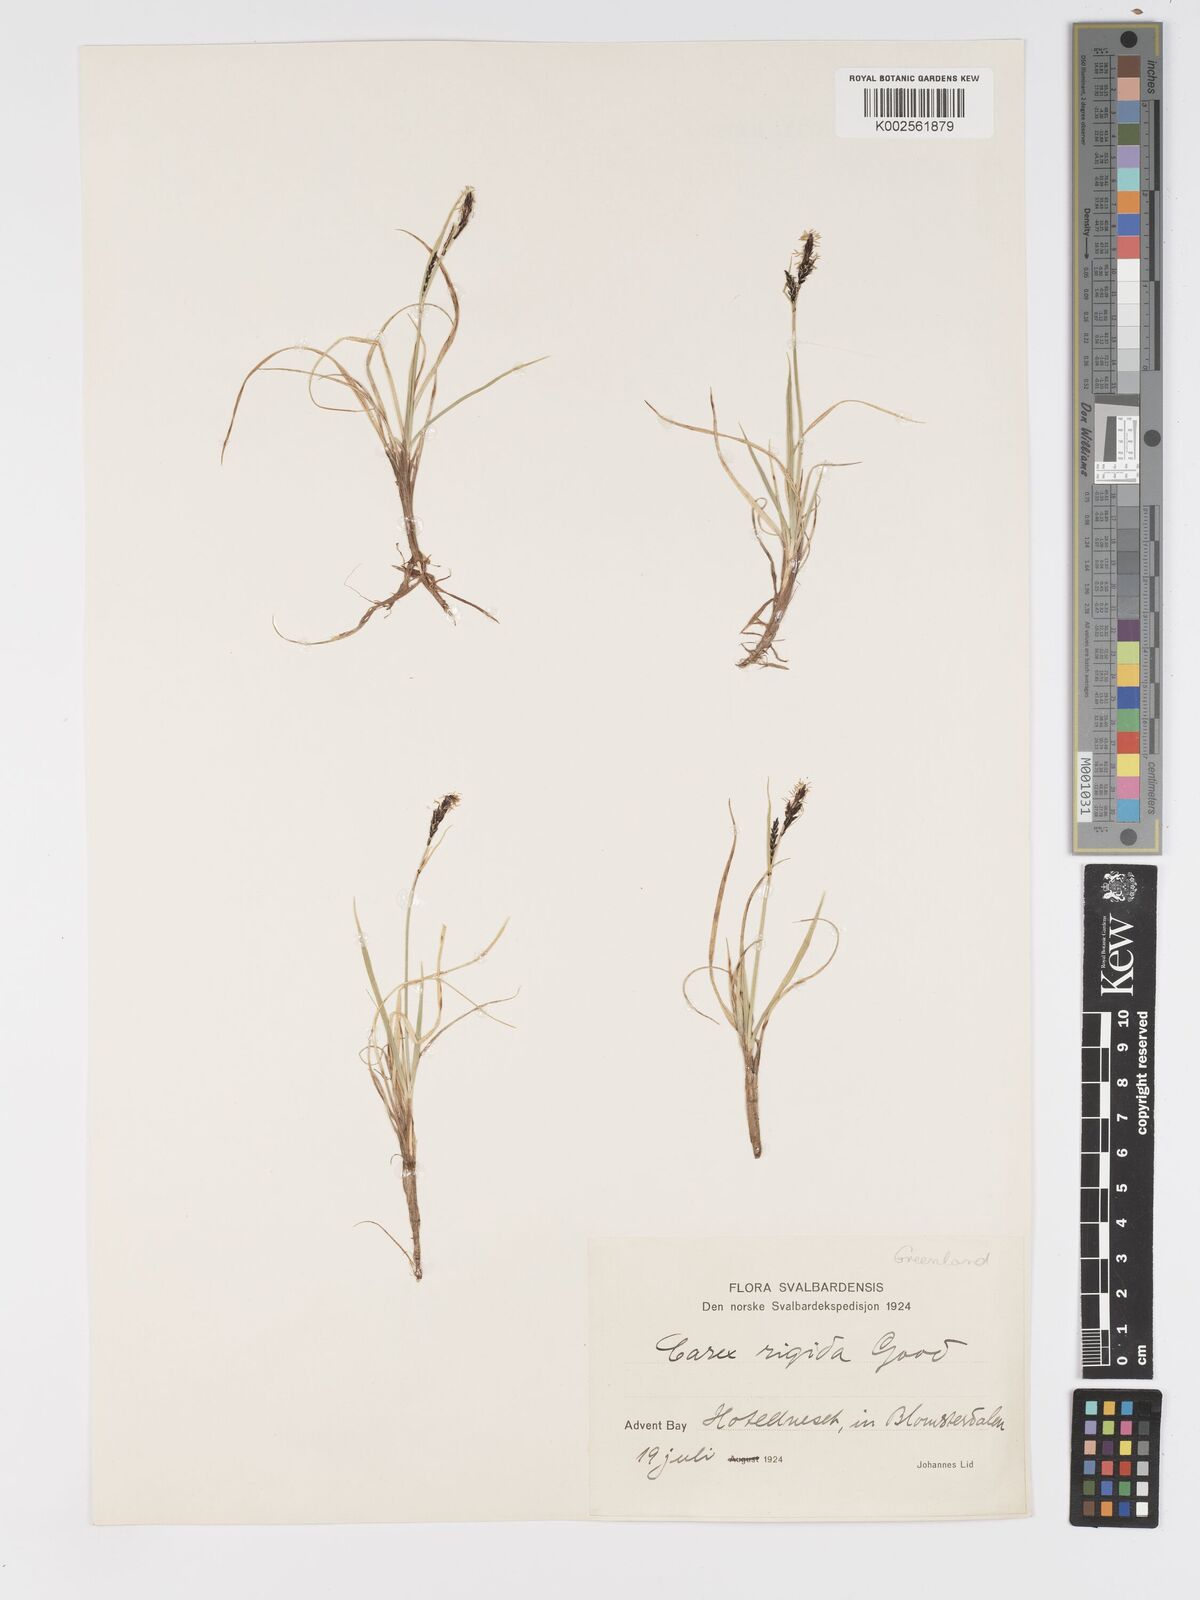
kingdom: Plantae
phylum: Tracheophyta
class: Liliopsida
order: Poales
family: Cyperaceae
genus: Carex
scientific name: Carex bigelowii
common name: Stiff sedge
